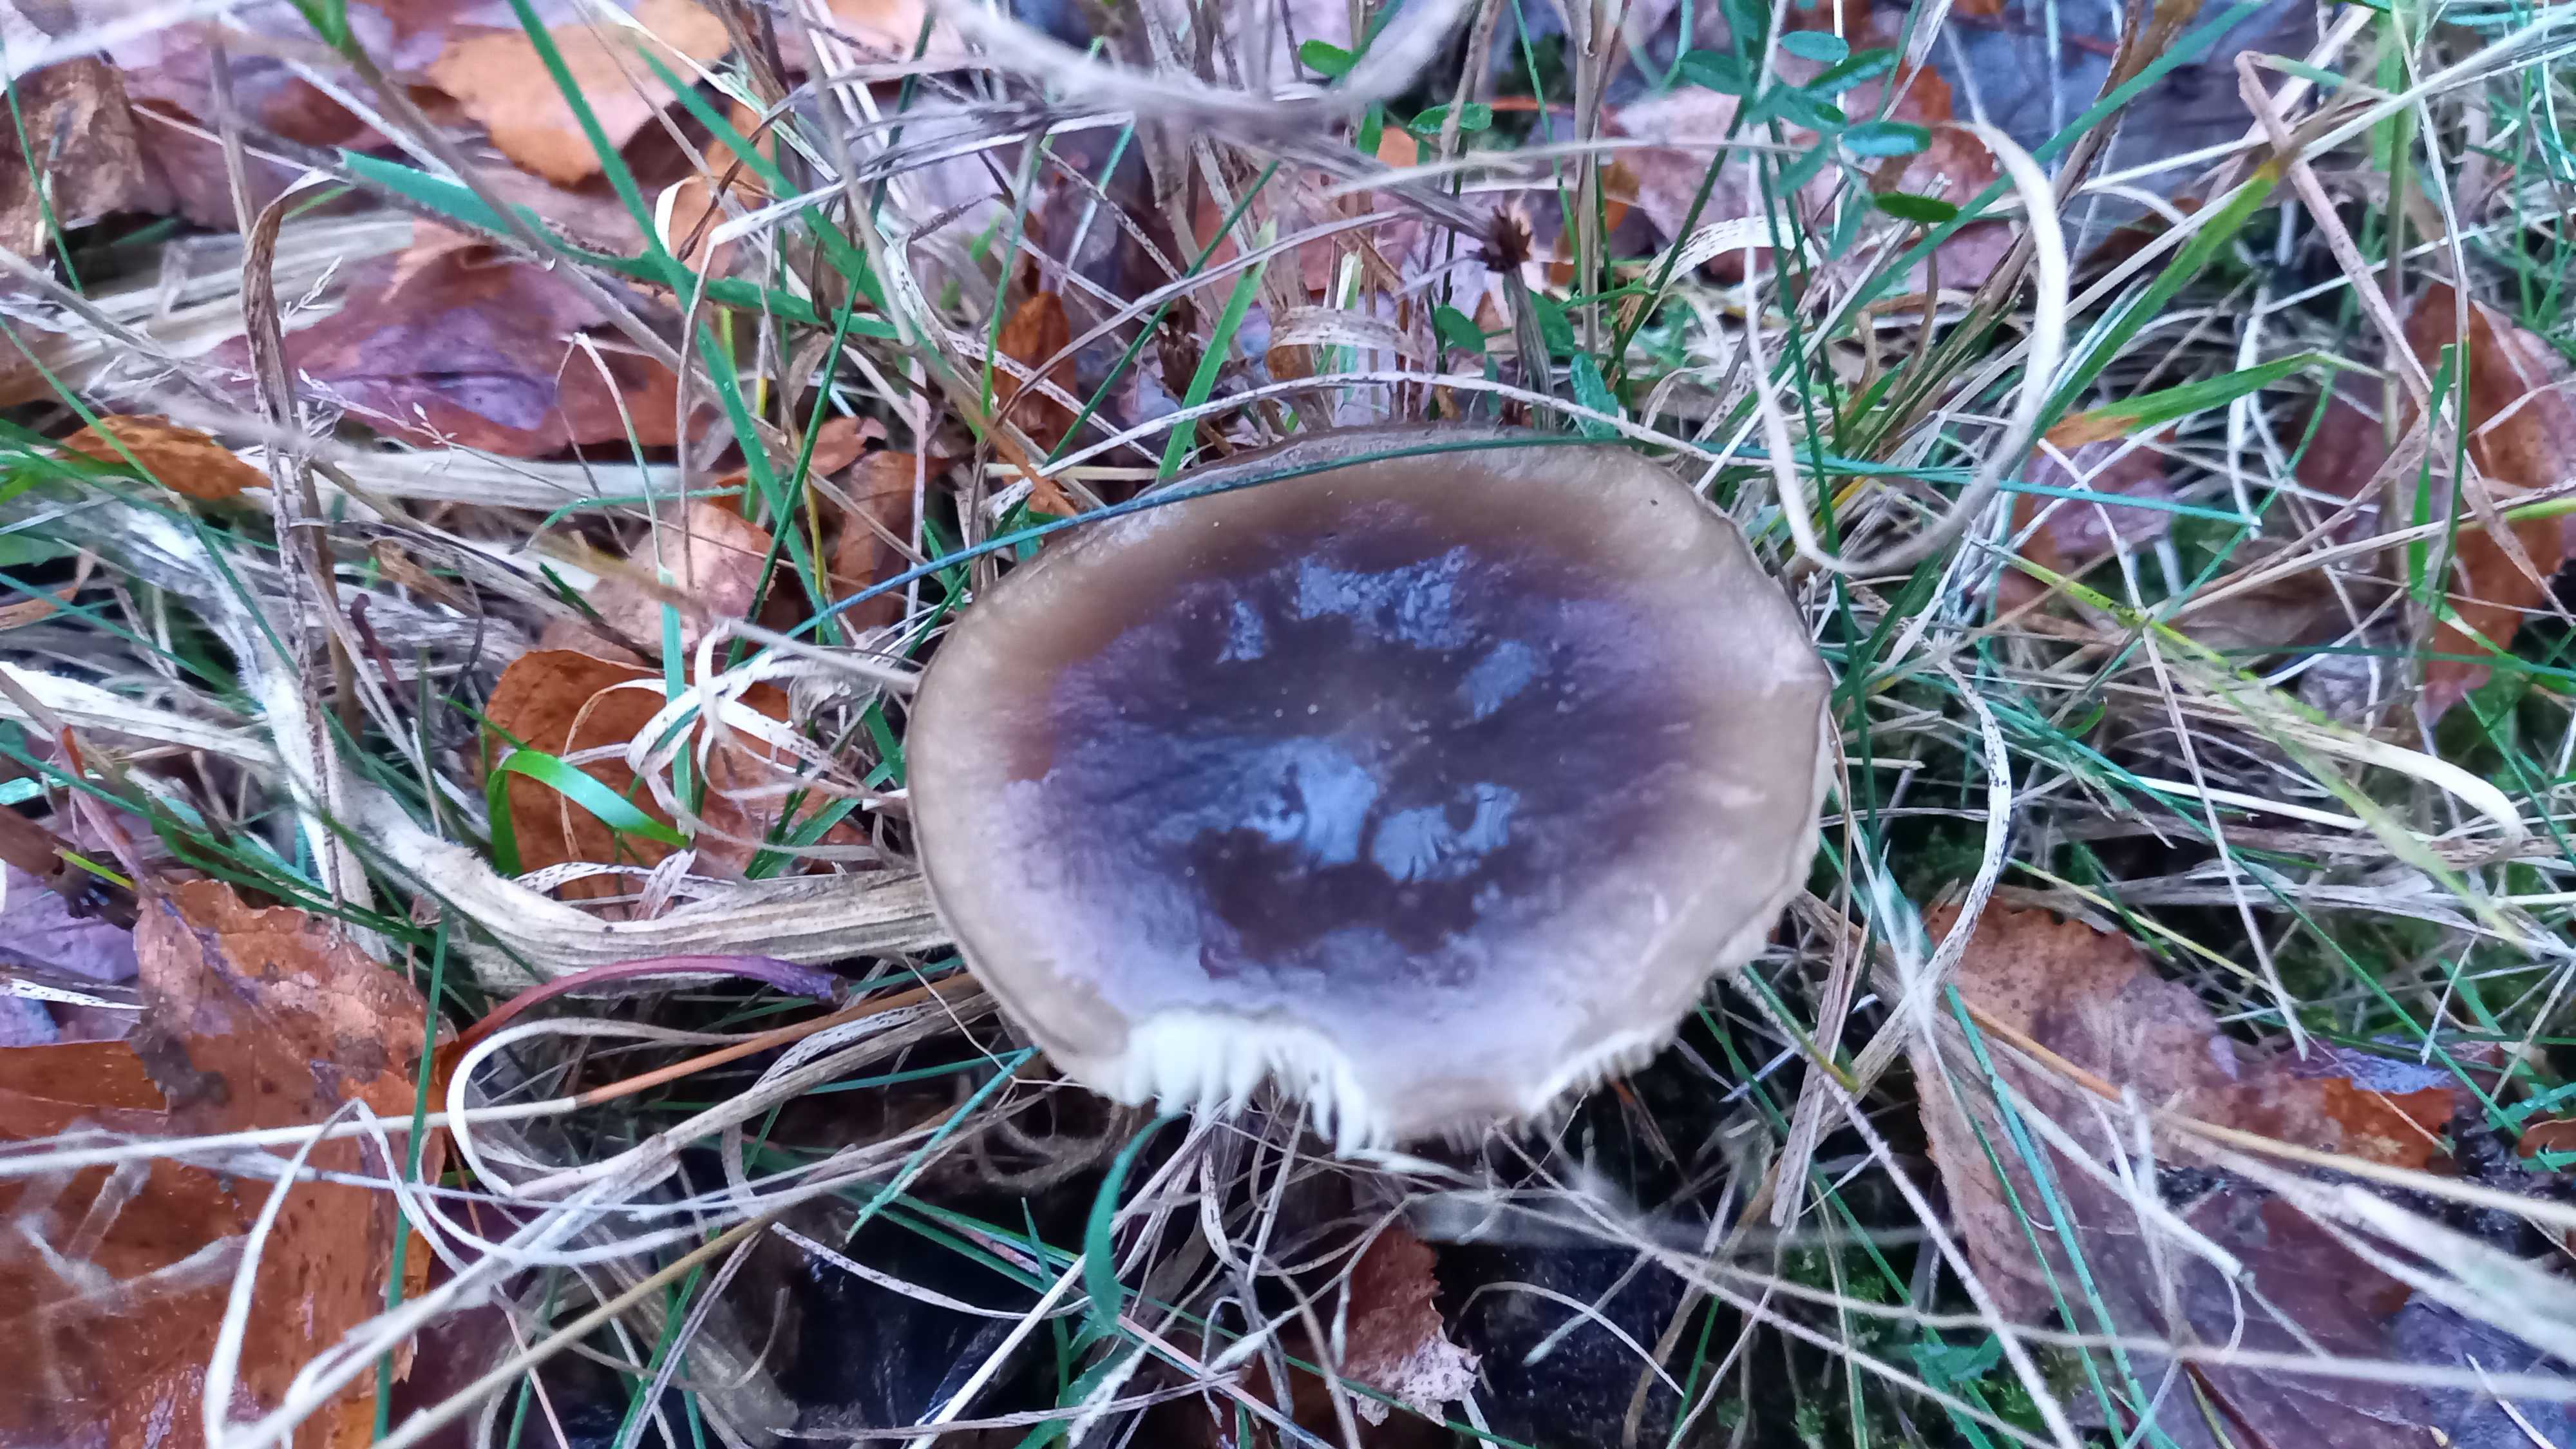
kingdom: Fungi
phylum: Basidiomycota
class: Agaricomycetes
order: Agaricales
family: Tricholomataceae
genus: Melanoleuca
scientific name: Melanoleuca
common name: munkehat
